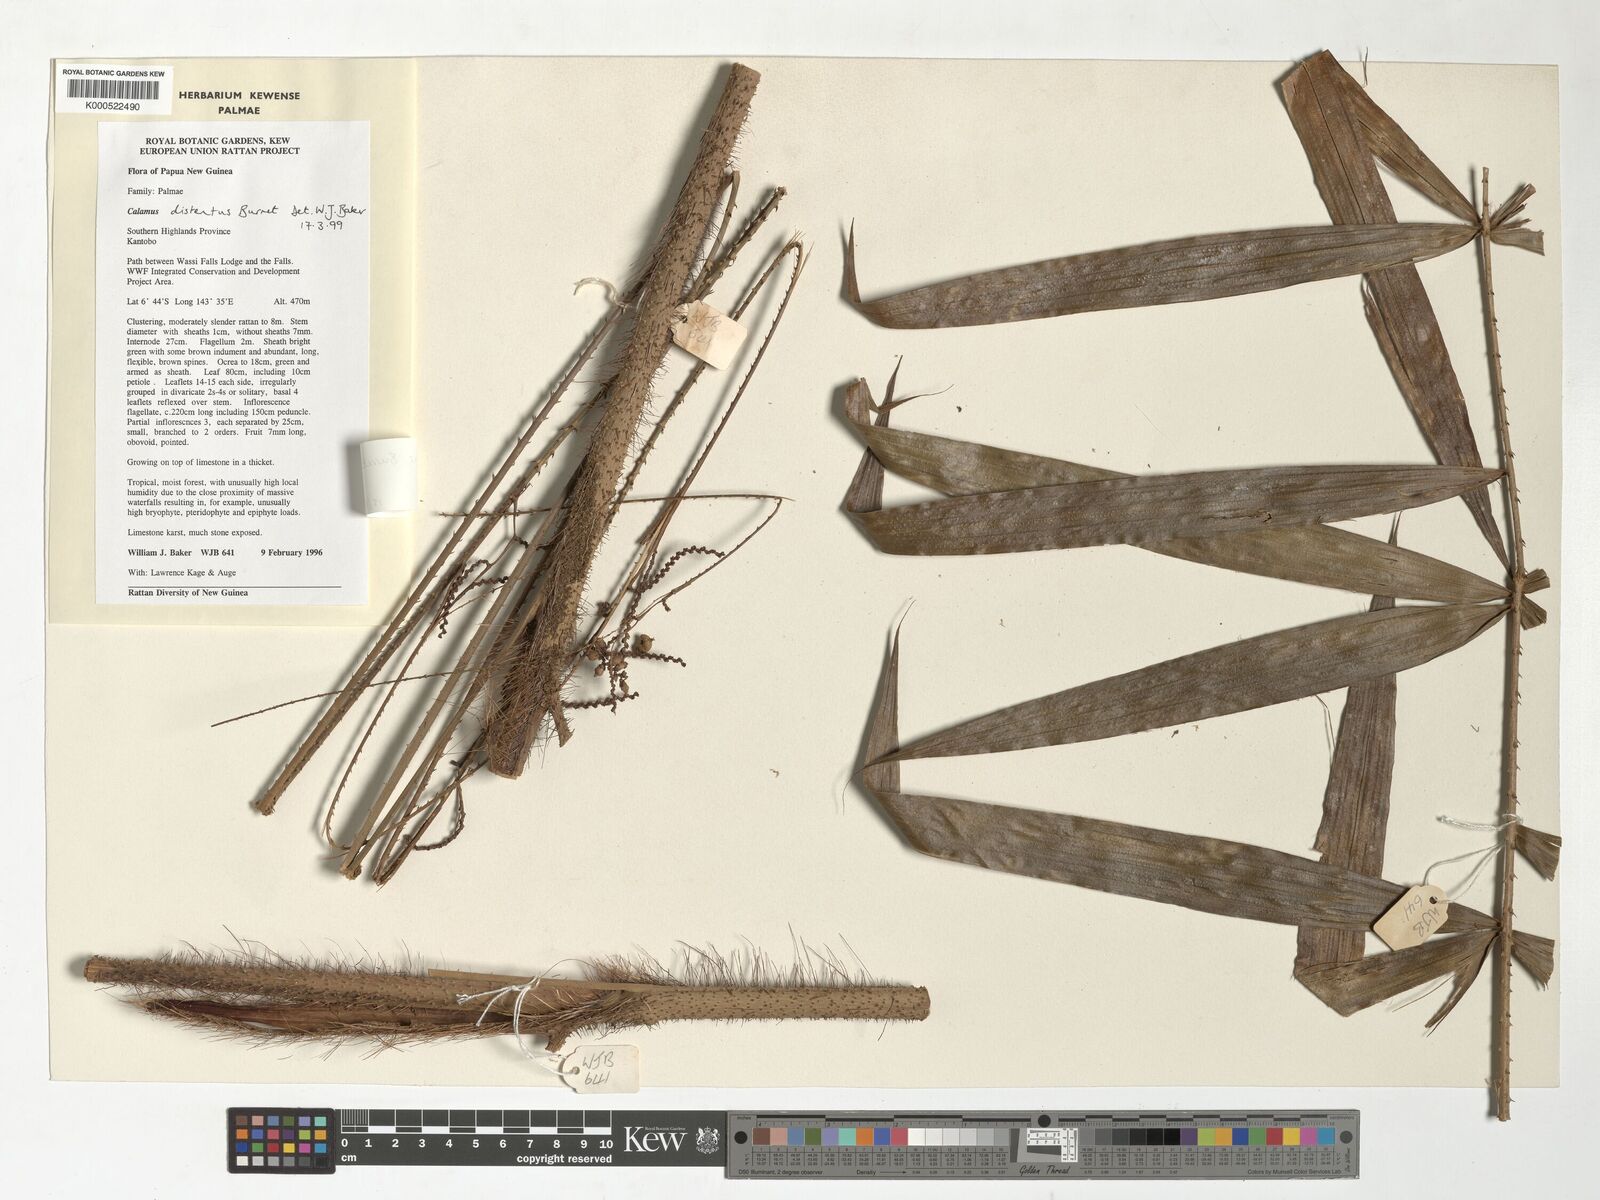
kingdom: Plantae
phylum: Tracheophyta
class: Liliopsida
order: Arecales
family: Arecaceae
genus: Calamus
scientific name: Calamus distentus
